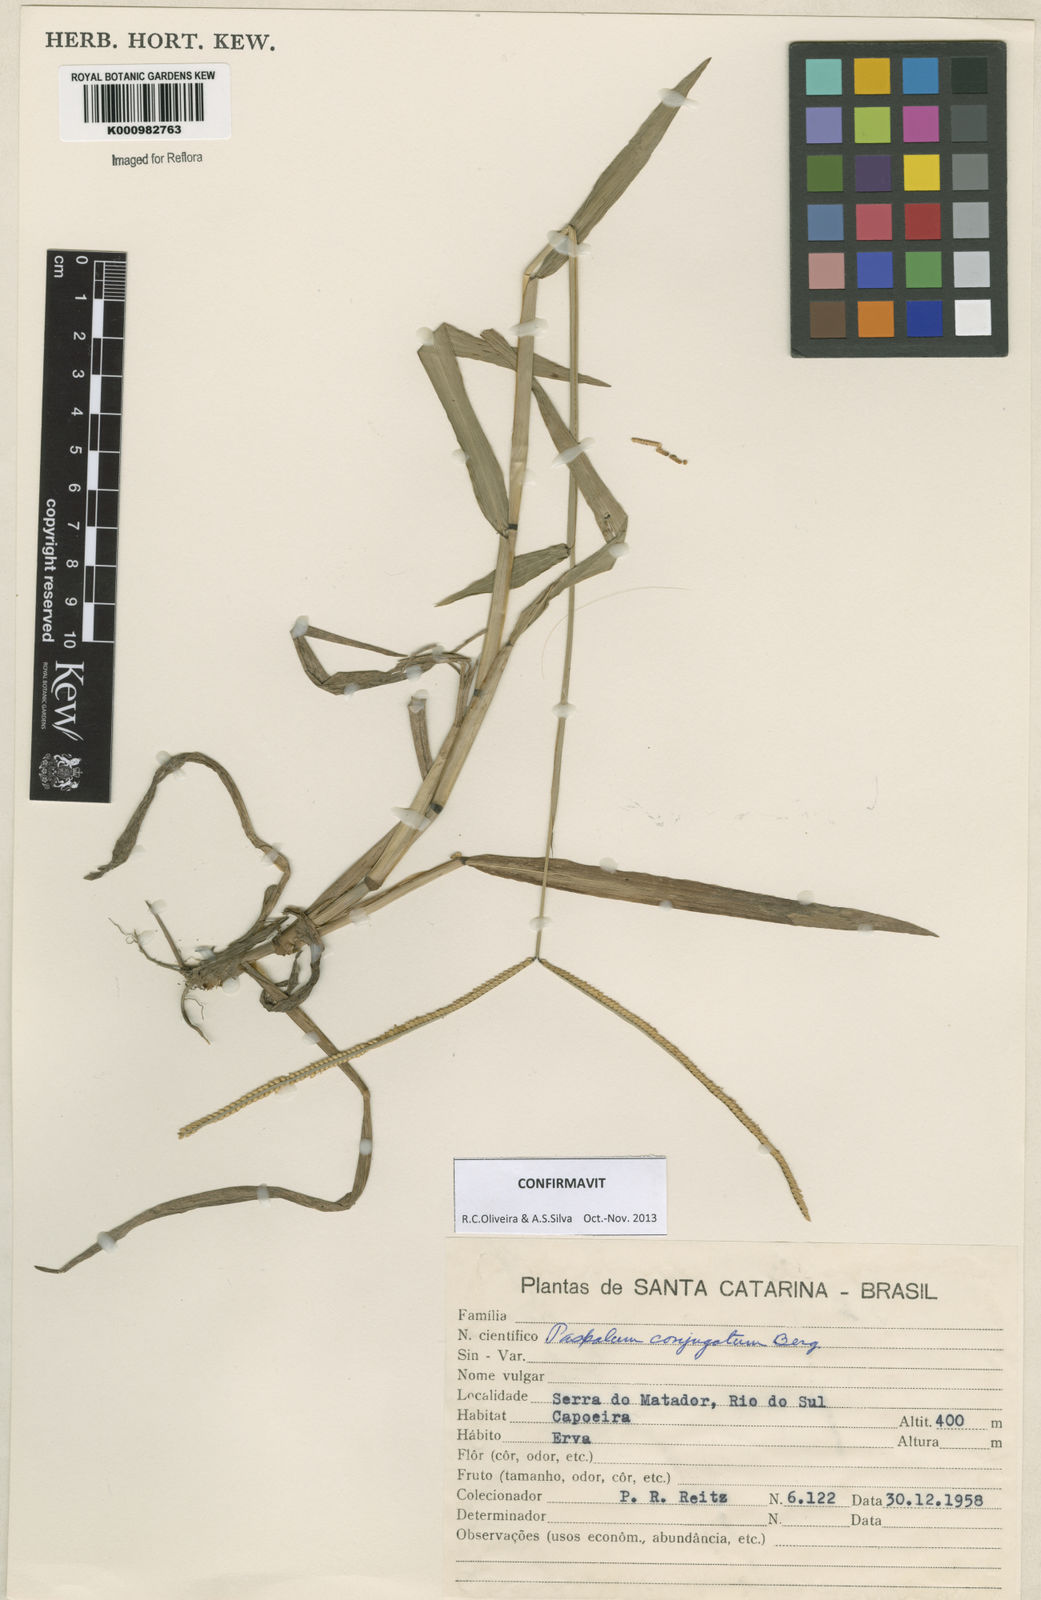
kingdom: Plantae
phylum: Tracheophyta
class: Liliopsida
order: Poales
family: Poaceae
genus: Paspalum
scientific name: Paspalum conjugatum
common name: Hilograss
